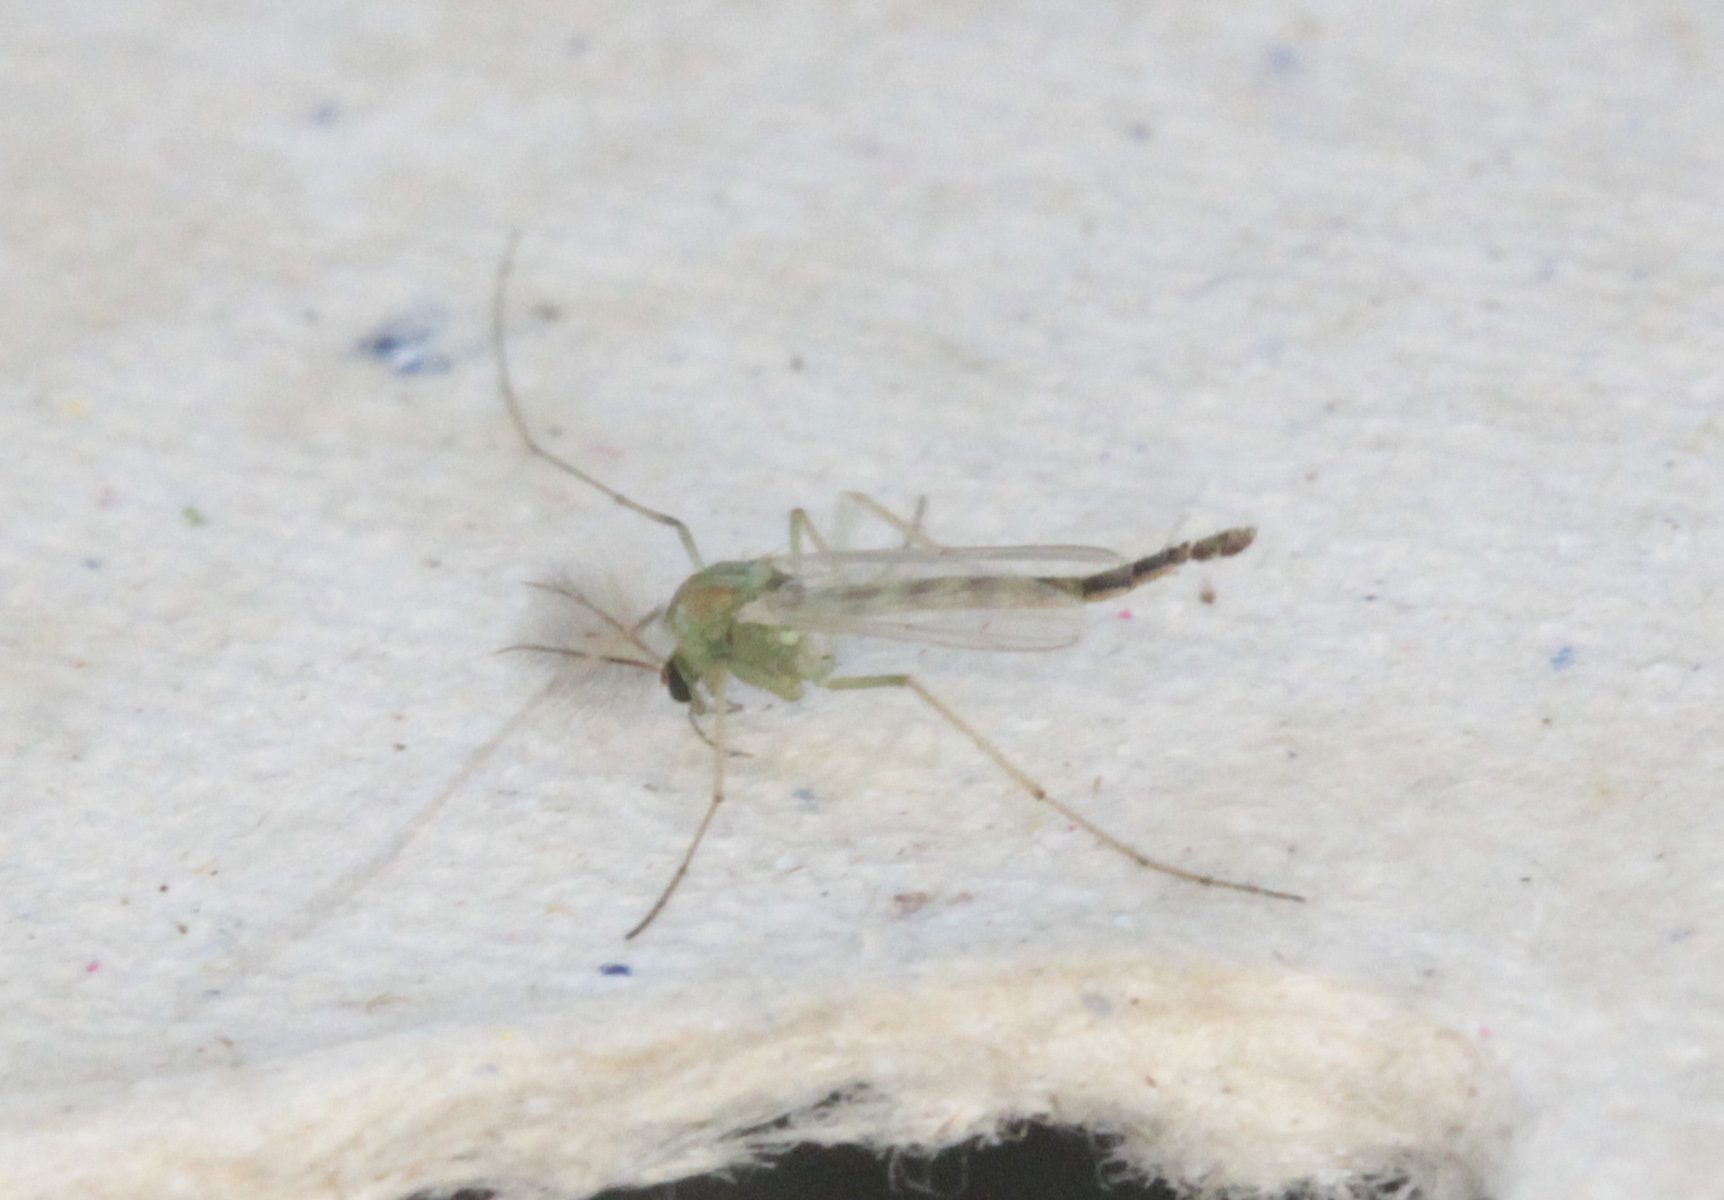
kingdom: Animalia
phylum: Arthropoda
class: Insecta
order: Diptera
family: Chironomidae
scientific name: Chironomidae
